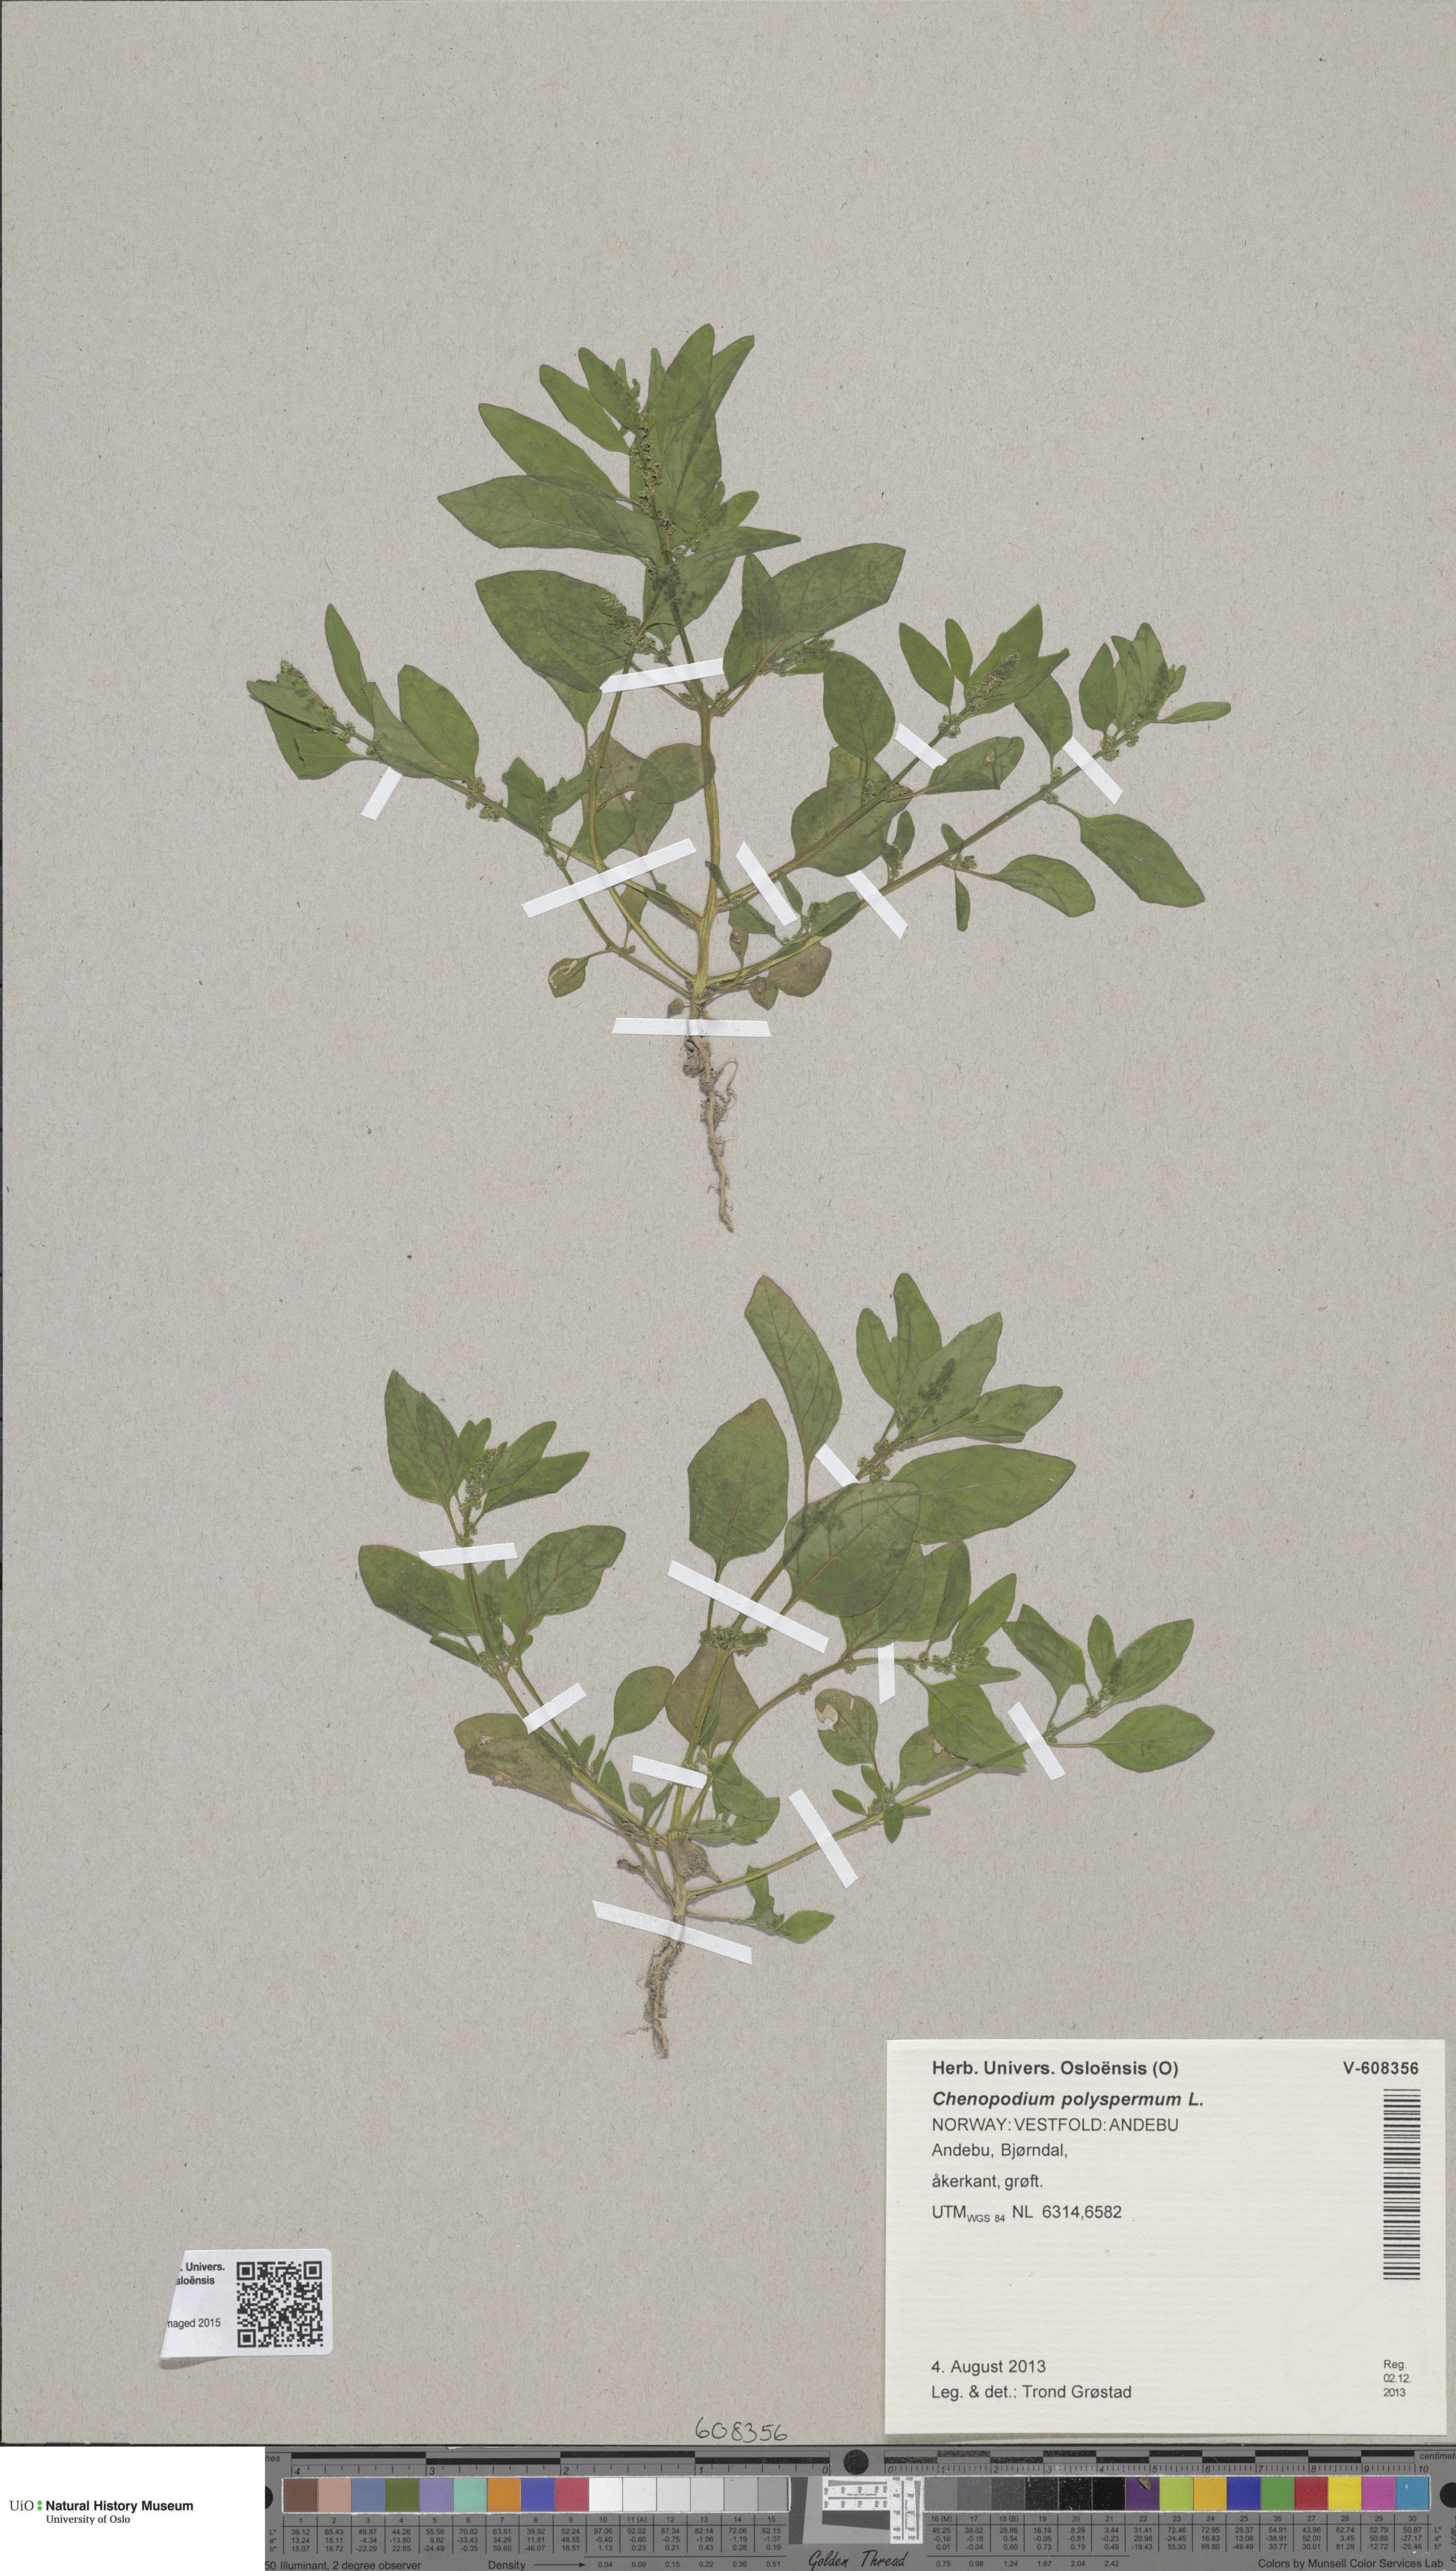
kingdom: Plantae
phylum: Tracheophyta
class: Magnoliopsida
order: Caryophyllales
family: Amaranthaceae
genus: Lipandra
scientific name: Lipandra polysperma
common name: Many-seed goosefoot
